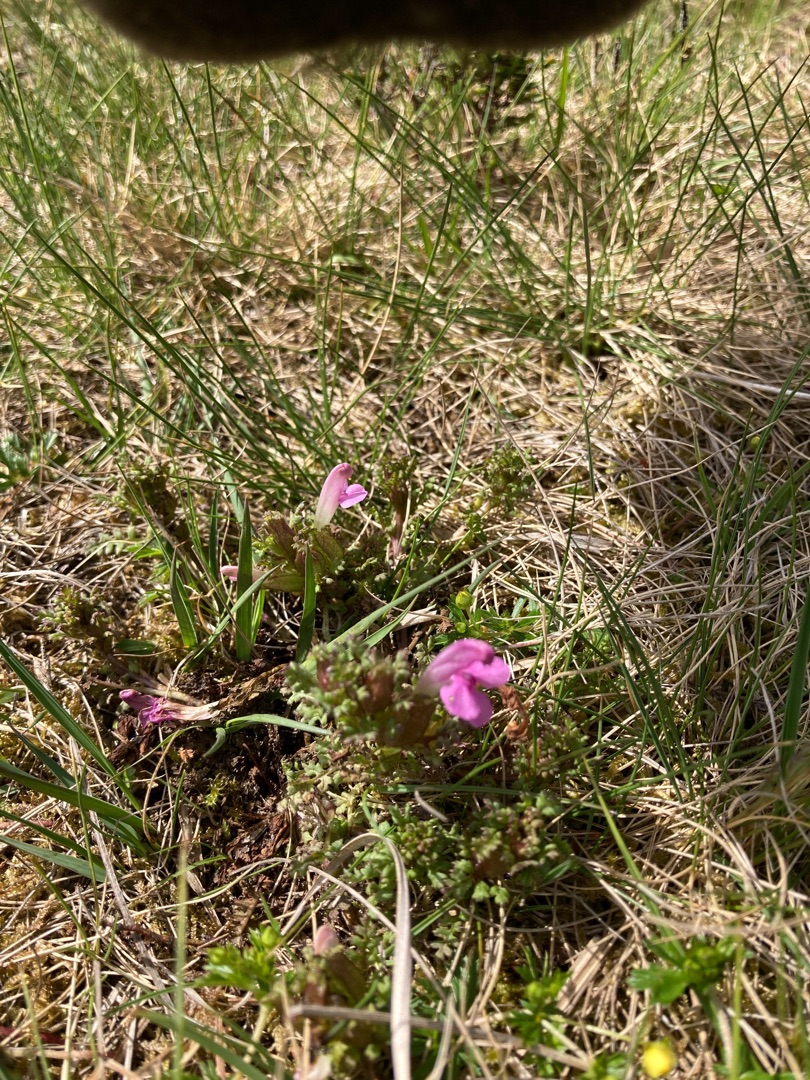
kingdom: Plantae
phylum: Tracheophyta
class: Magnoliopsida
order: Lamiales
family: Orobanchaceae
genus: Pedicularis
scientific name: Pedicularis sylvatica
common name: Mose-troldurt
